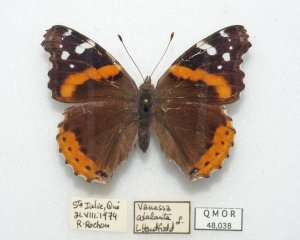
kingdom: Animalia
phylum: Arthropoda
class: Insecta
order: Lepidoptera
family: Nymphalidae
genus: Vanessa
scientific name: Vanessa atalanta
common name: Red Admiral
